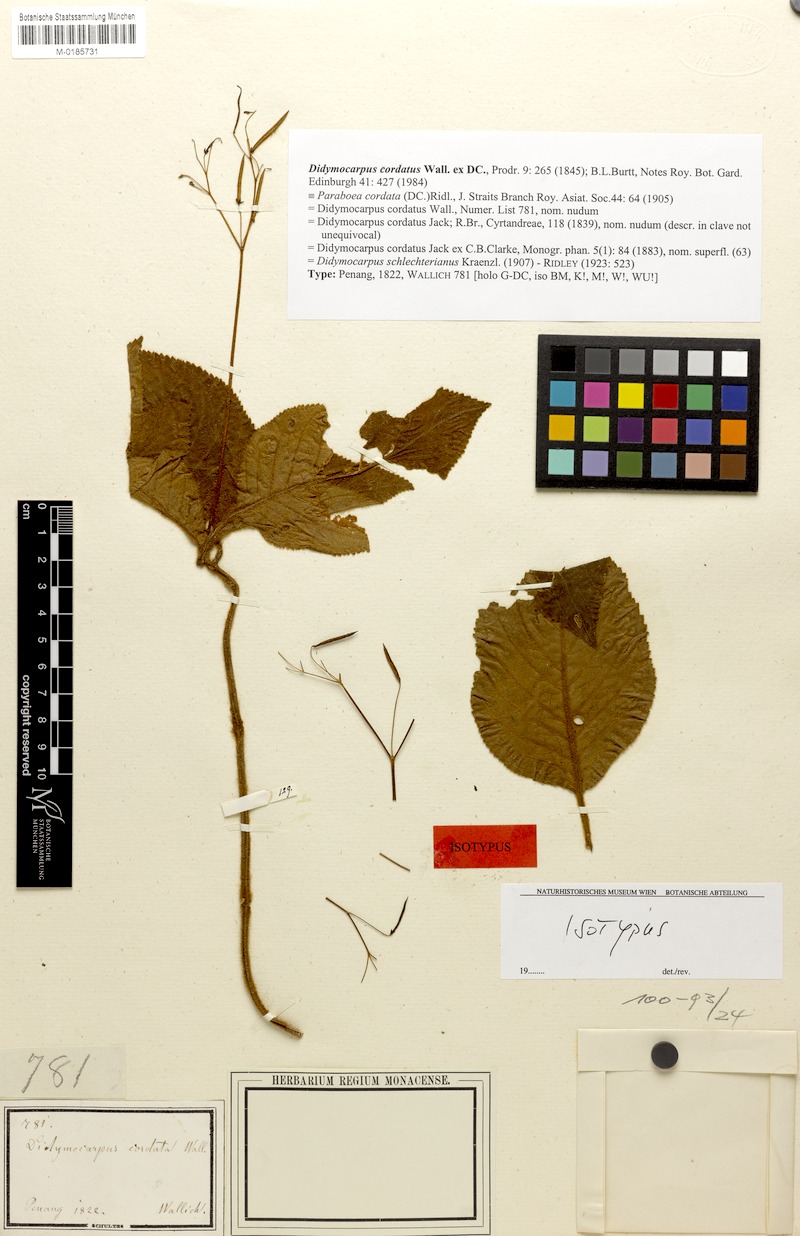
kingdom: Plantae
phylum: Tracheophyta
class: Magnoliopsida
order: Lamiales
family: Gesneriaceae
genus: Didymocarpus
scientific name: Didymocarpus cordatus
